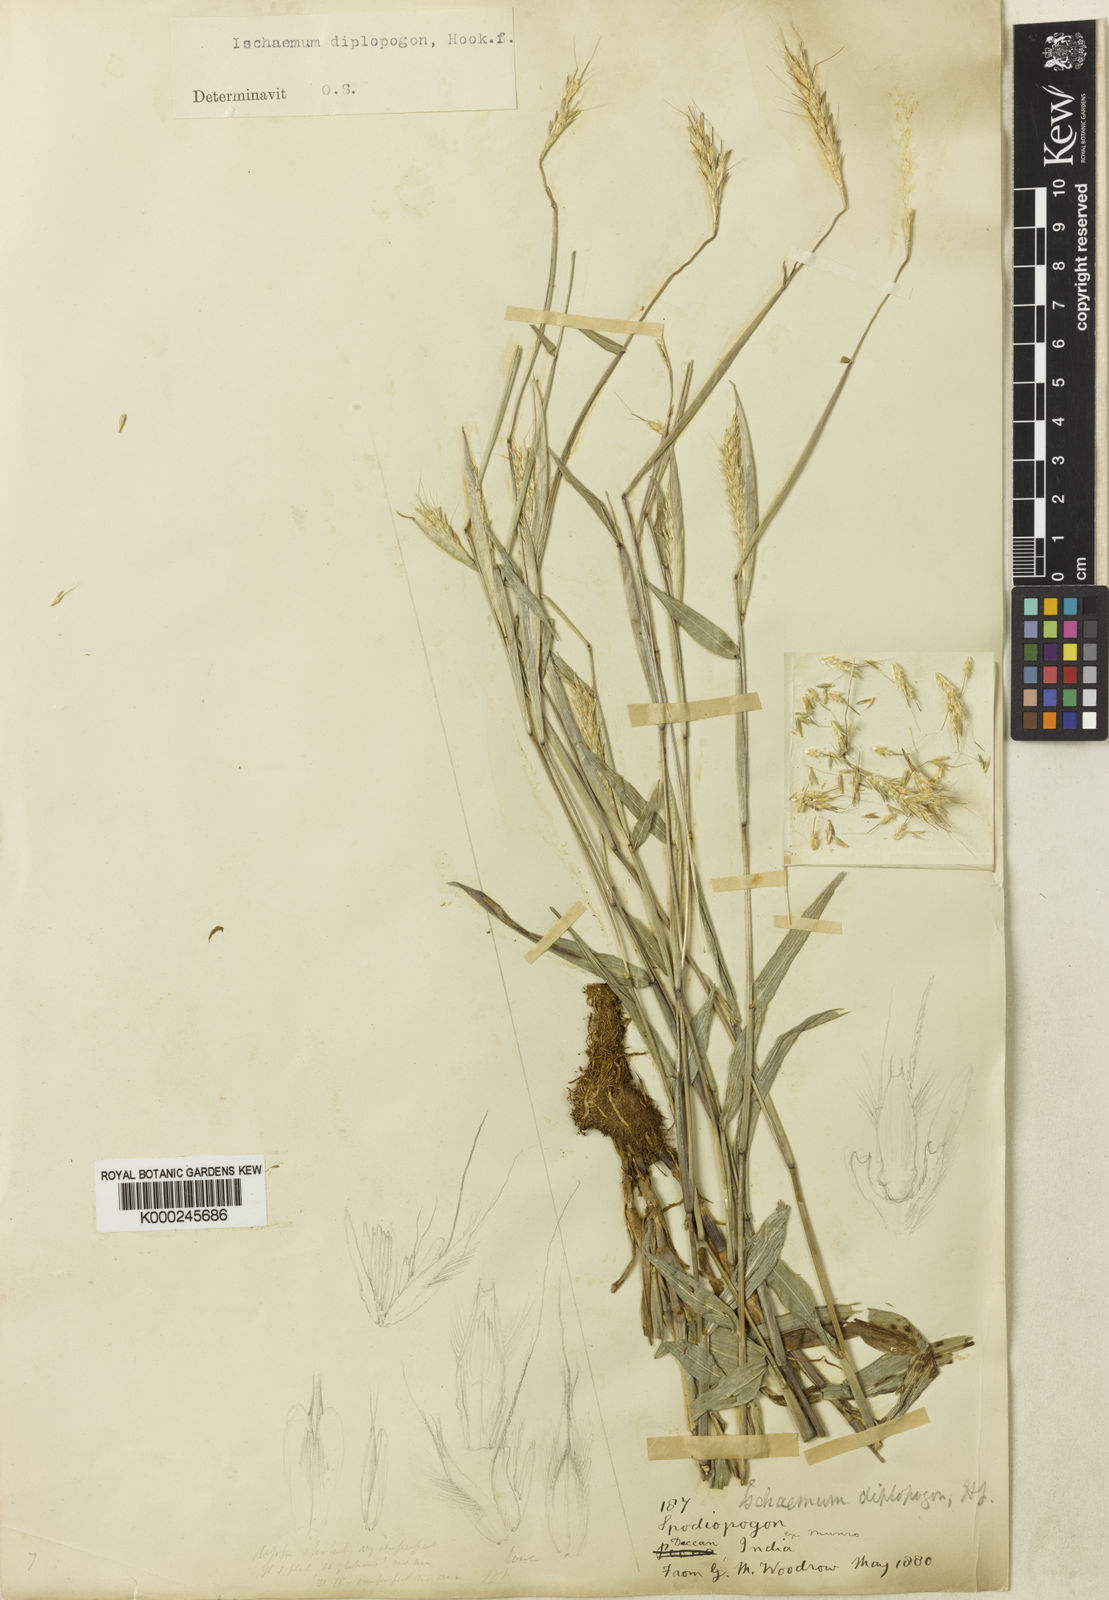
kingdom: Plantae
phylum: Tracheophyta
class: Liliopsida
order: Poales
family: Poaceae
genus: Ischaemum
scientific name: Ischaemum diplopogon
